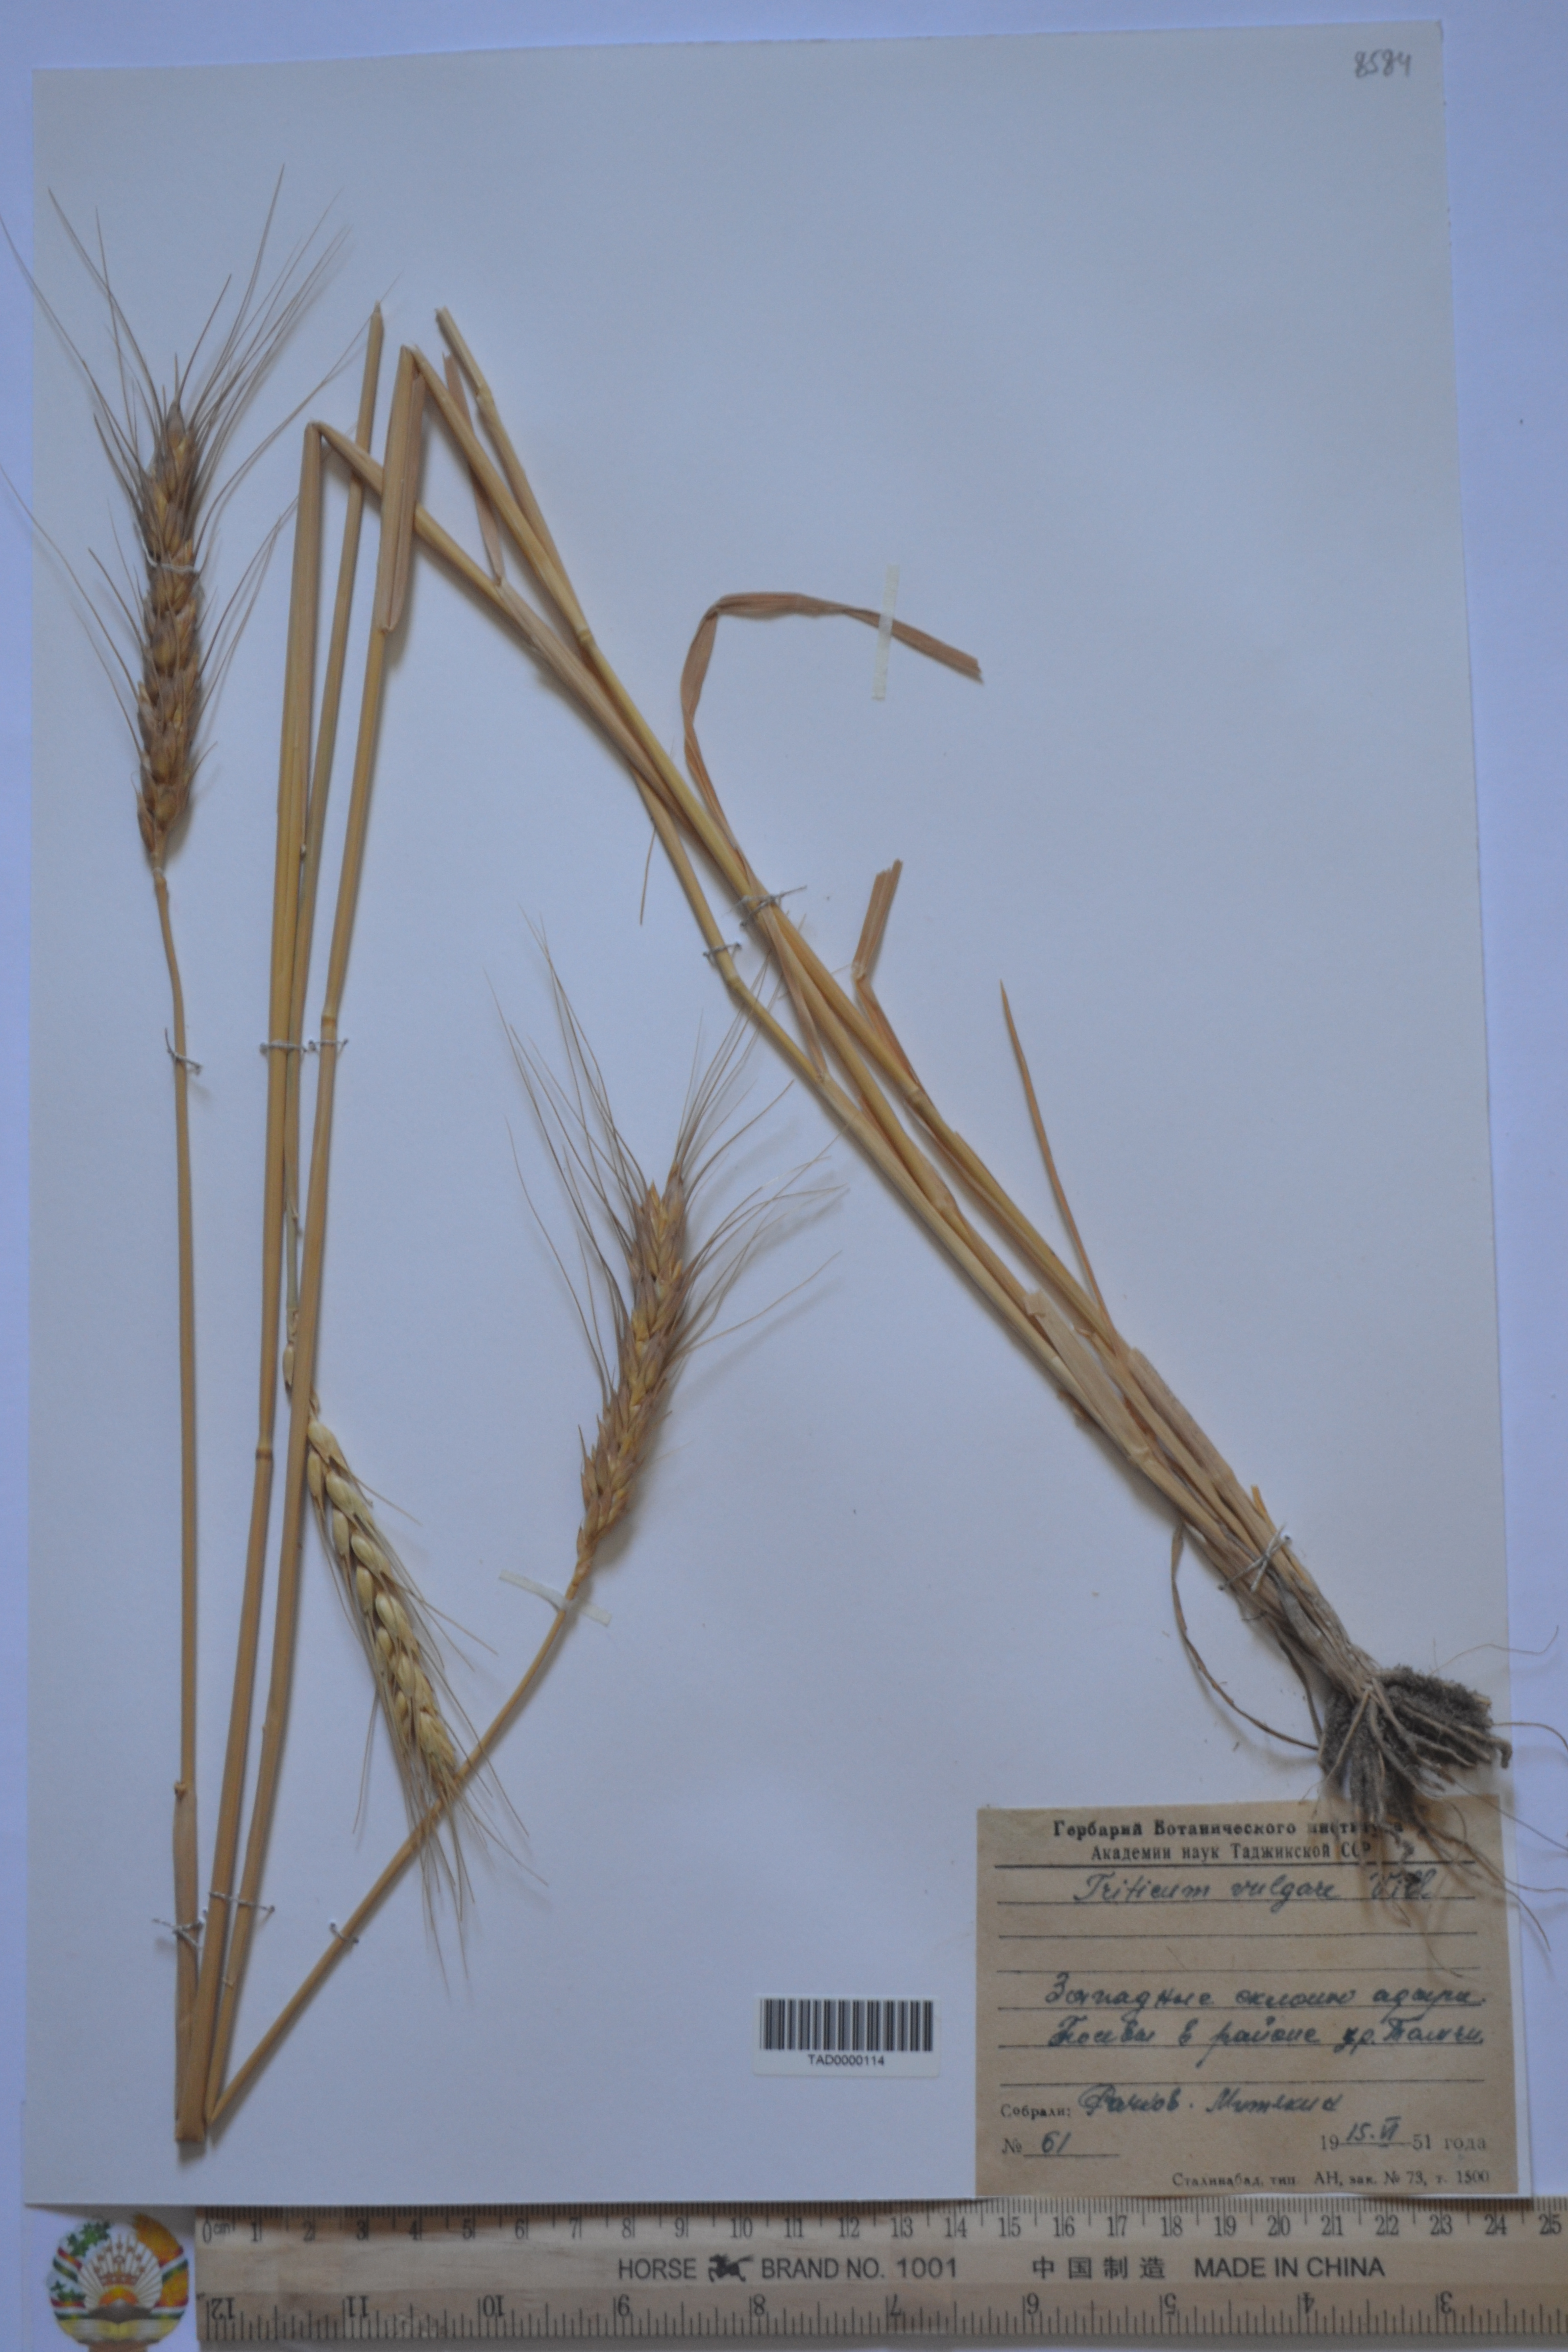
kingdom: Plantae
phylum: Tracheophyta
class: Liliopsida
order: Poales
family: Poaceae
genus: Triticum
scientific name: Triticum
